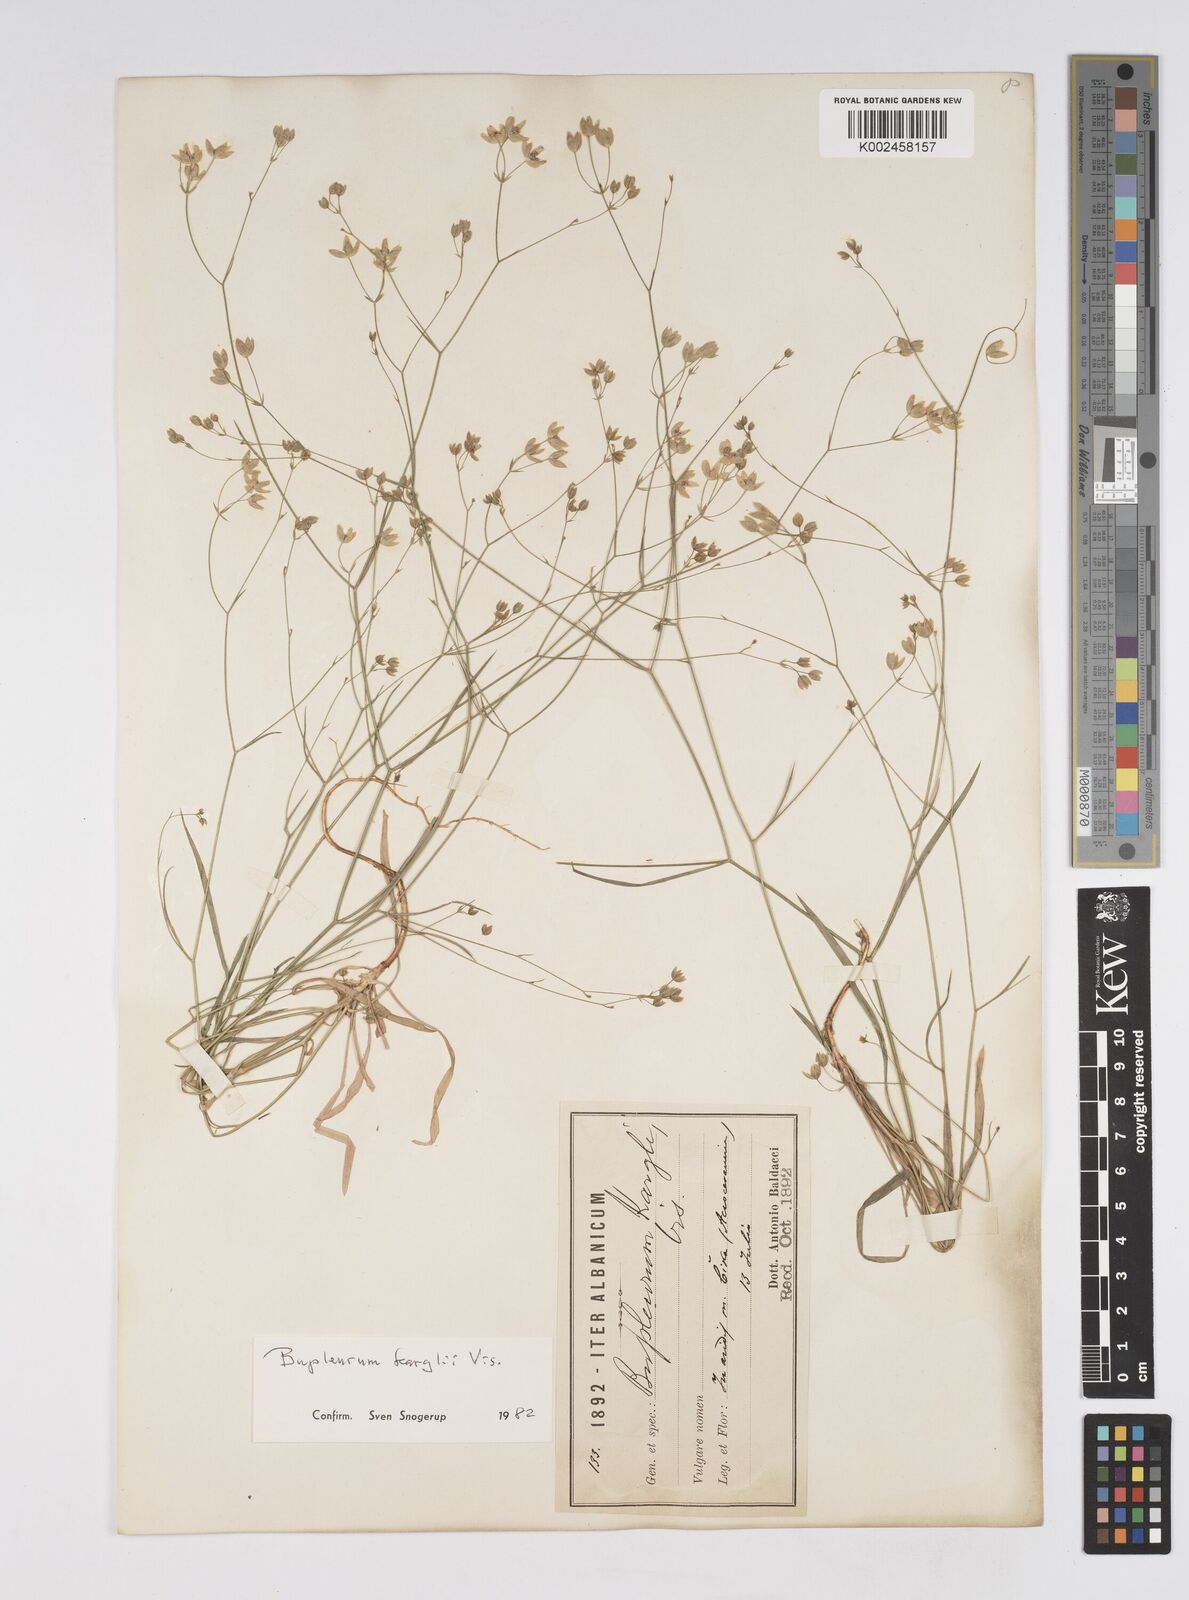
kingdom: Plantae
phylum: Tracheophyta
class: Magnoliopsida
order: Apiales
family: Apiaceae
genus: Bupleurum
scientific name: Bupleurum karglii
